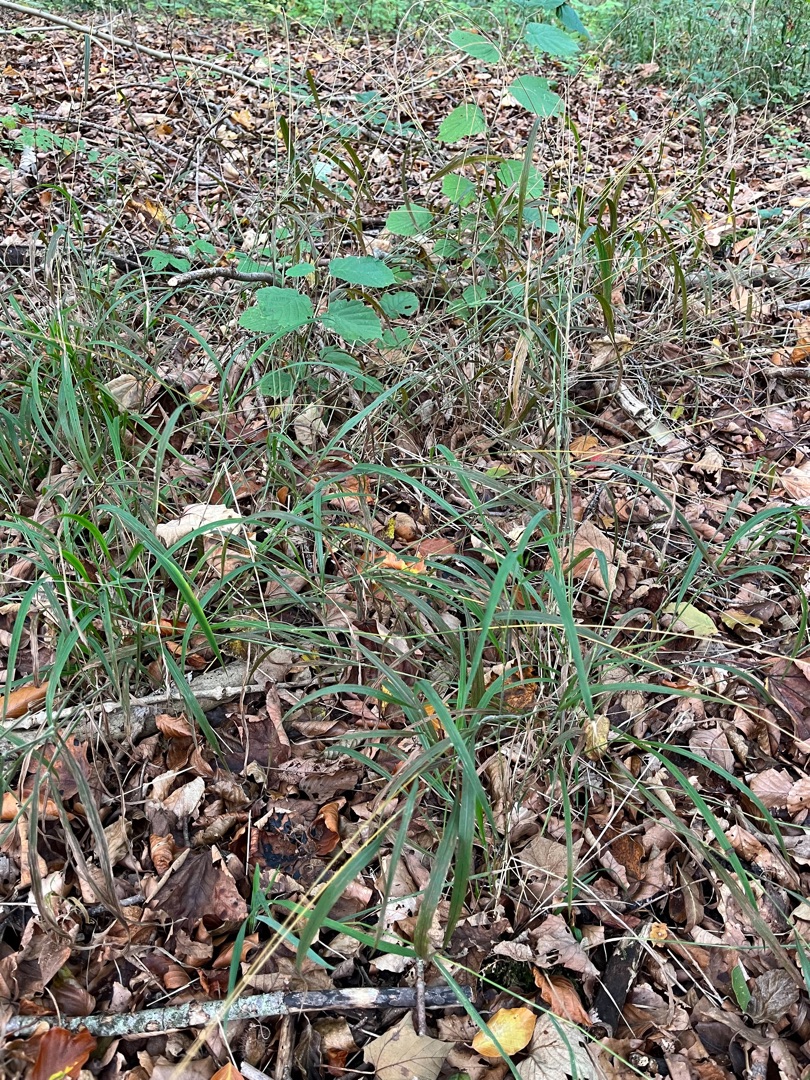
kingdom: Plantae
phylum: Tracheophyta
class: Liliopsida
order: Poales
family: Poaceae
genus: Brachypodium
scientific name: Brachypodium sylvaticum
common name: Skov-stilkaks
